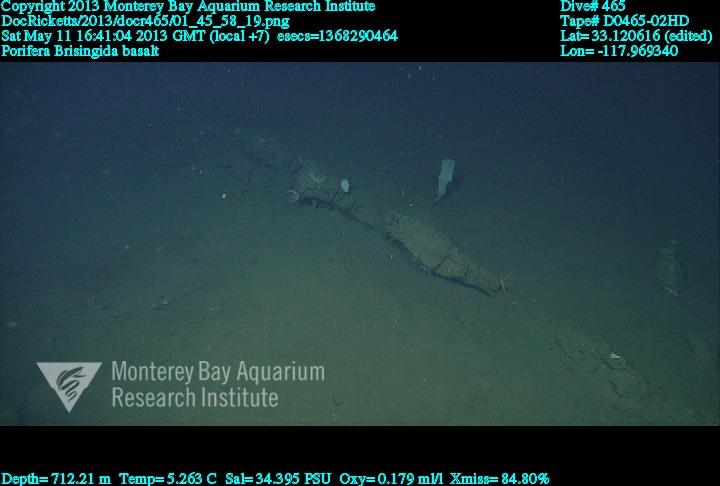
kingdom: Animalia
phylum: Porifera
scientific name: Porifera
